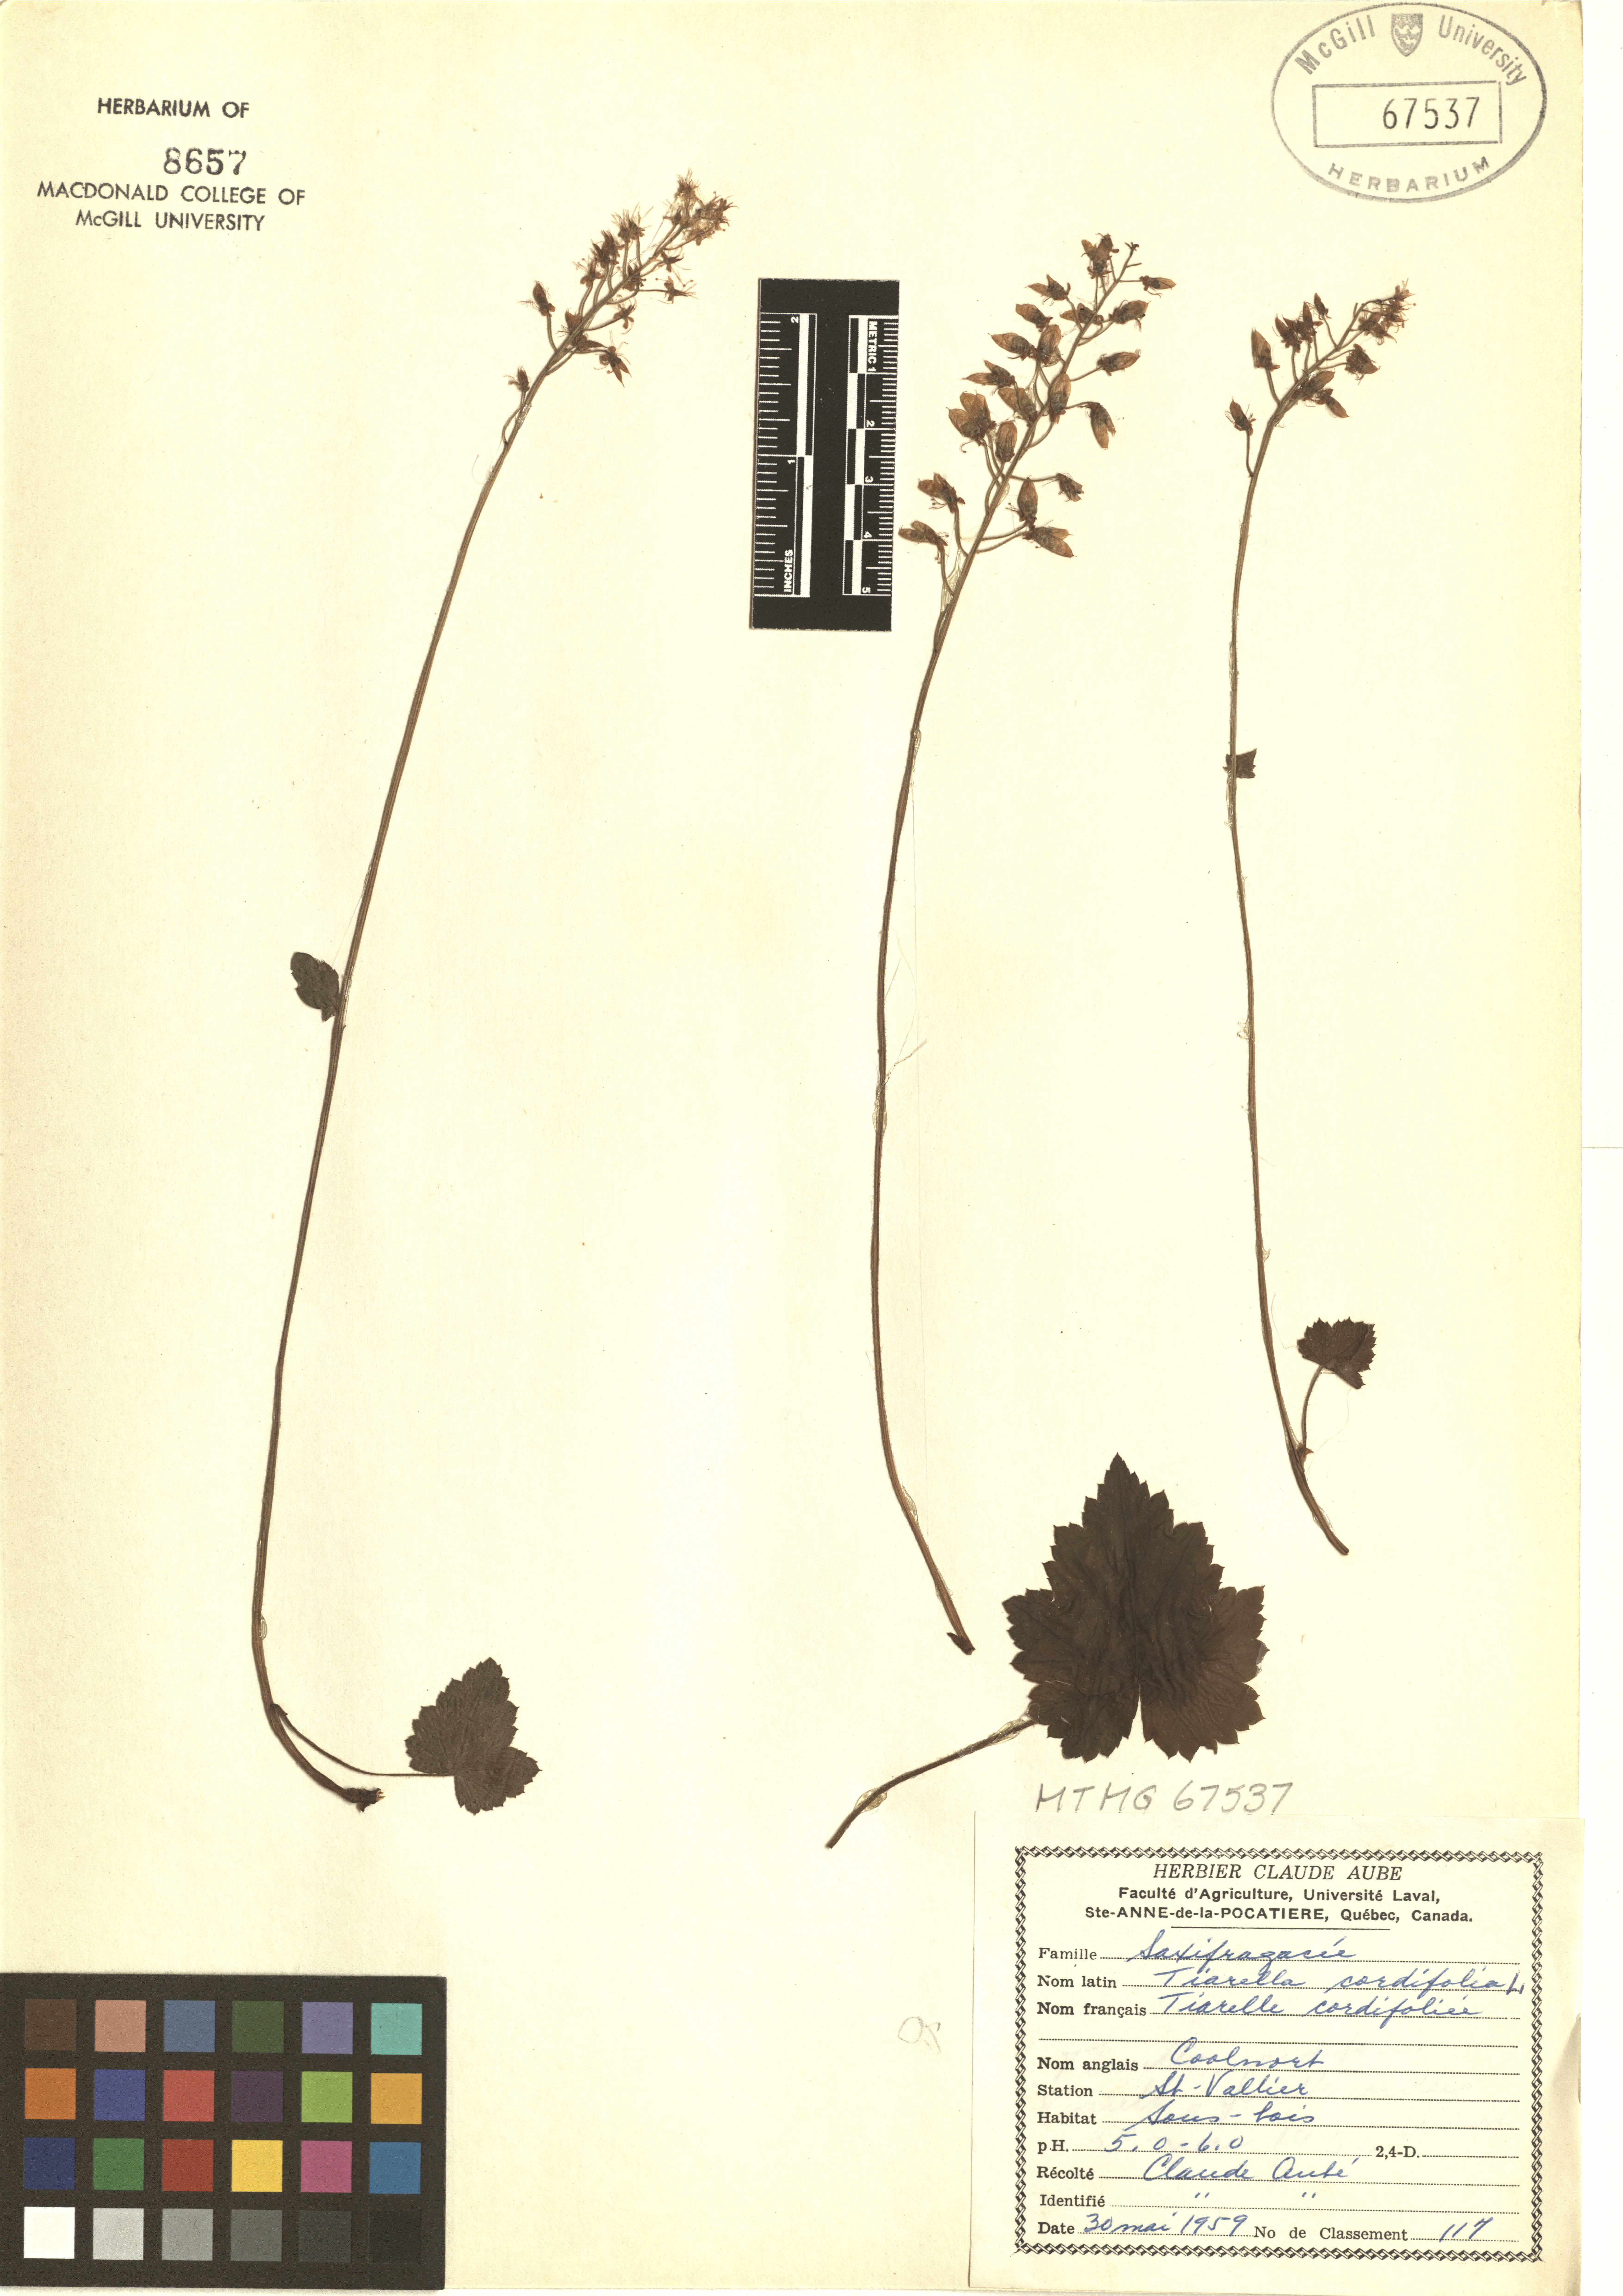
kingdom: Plantae
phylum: Tracheophyta
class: Magnoliopsida
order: Saxifragales
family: Saxifragaceae
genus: Tiarella
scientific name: Tiarella cordifolia
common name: Foamflower
